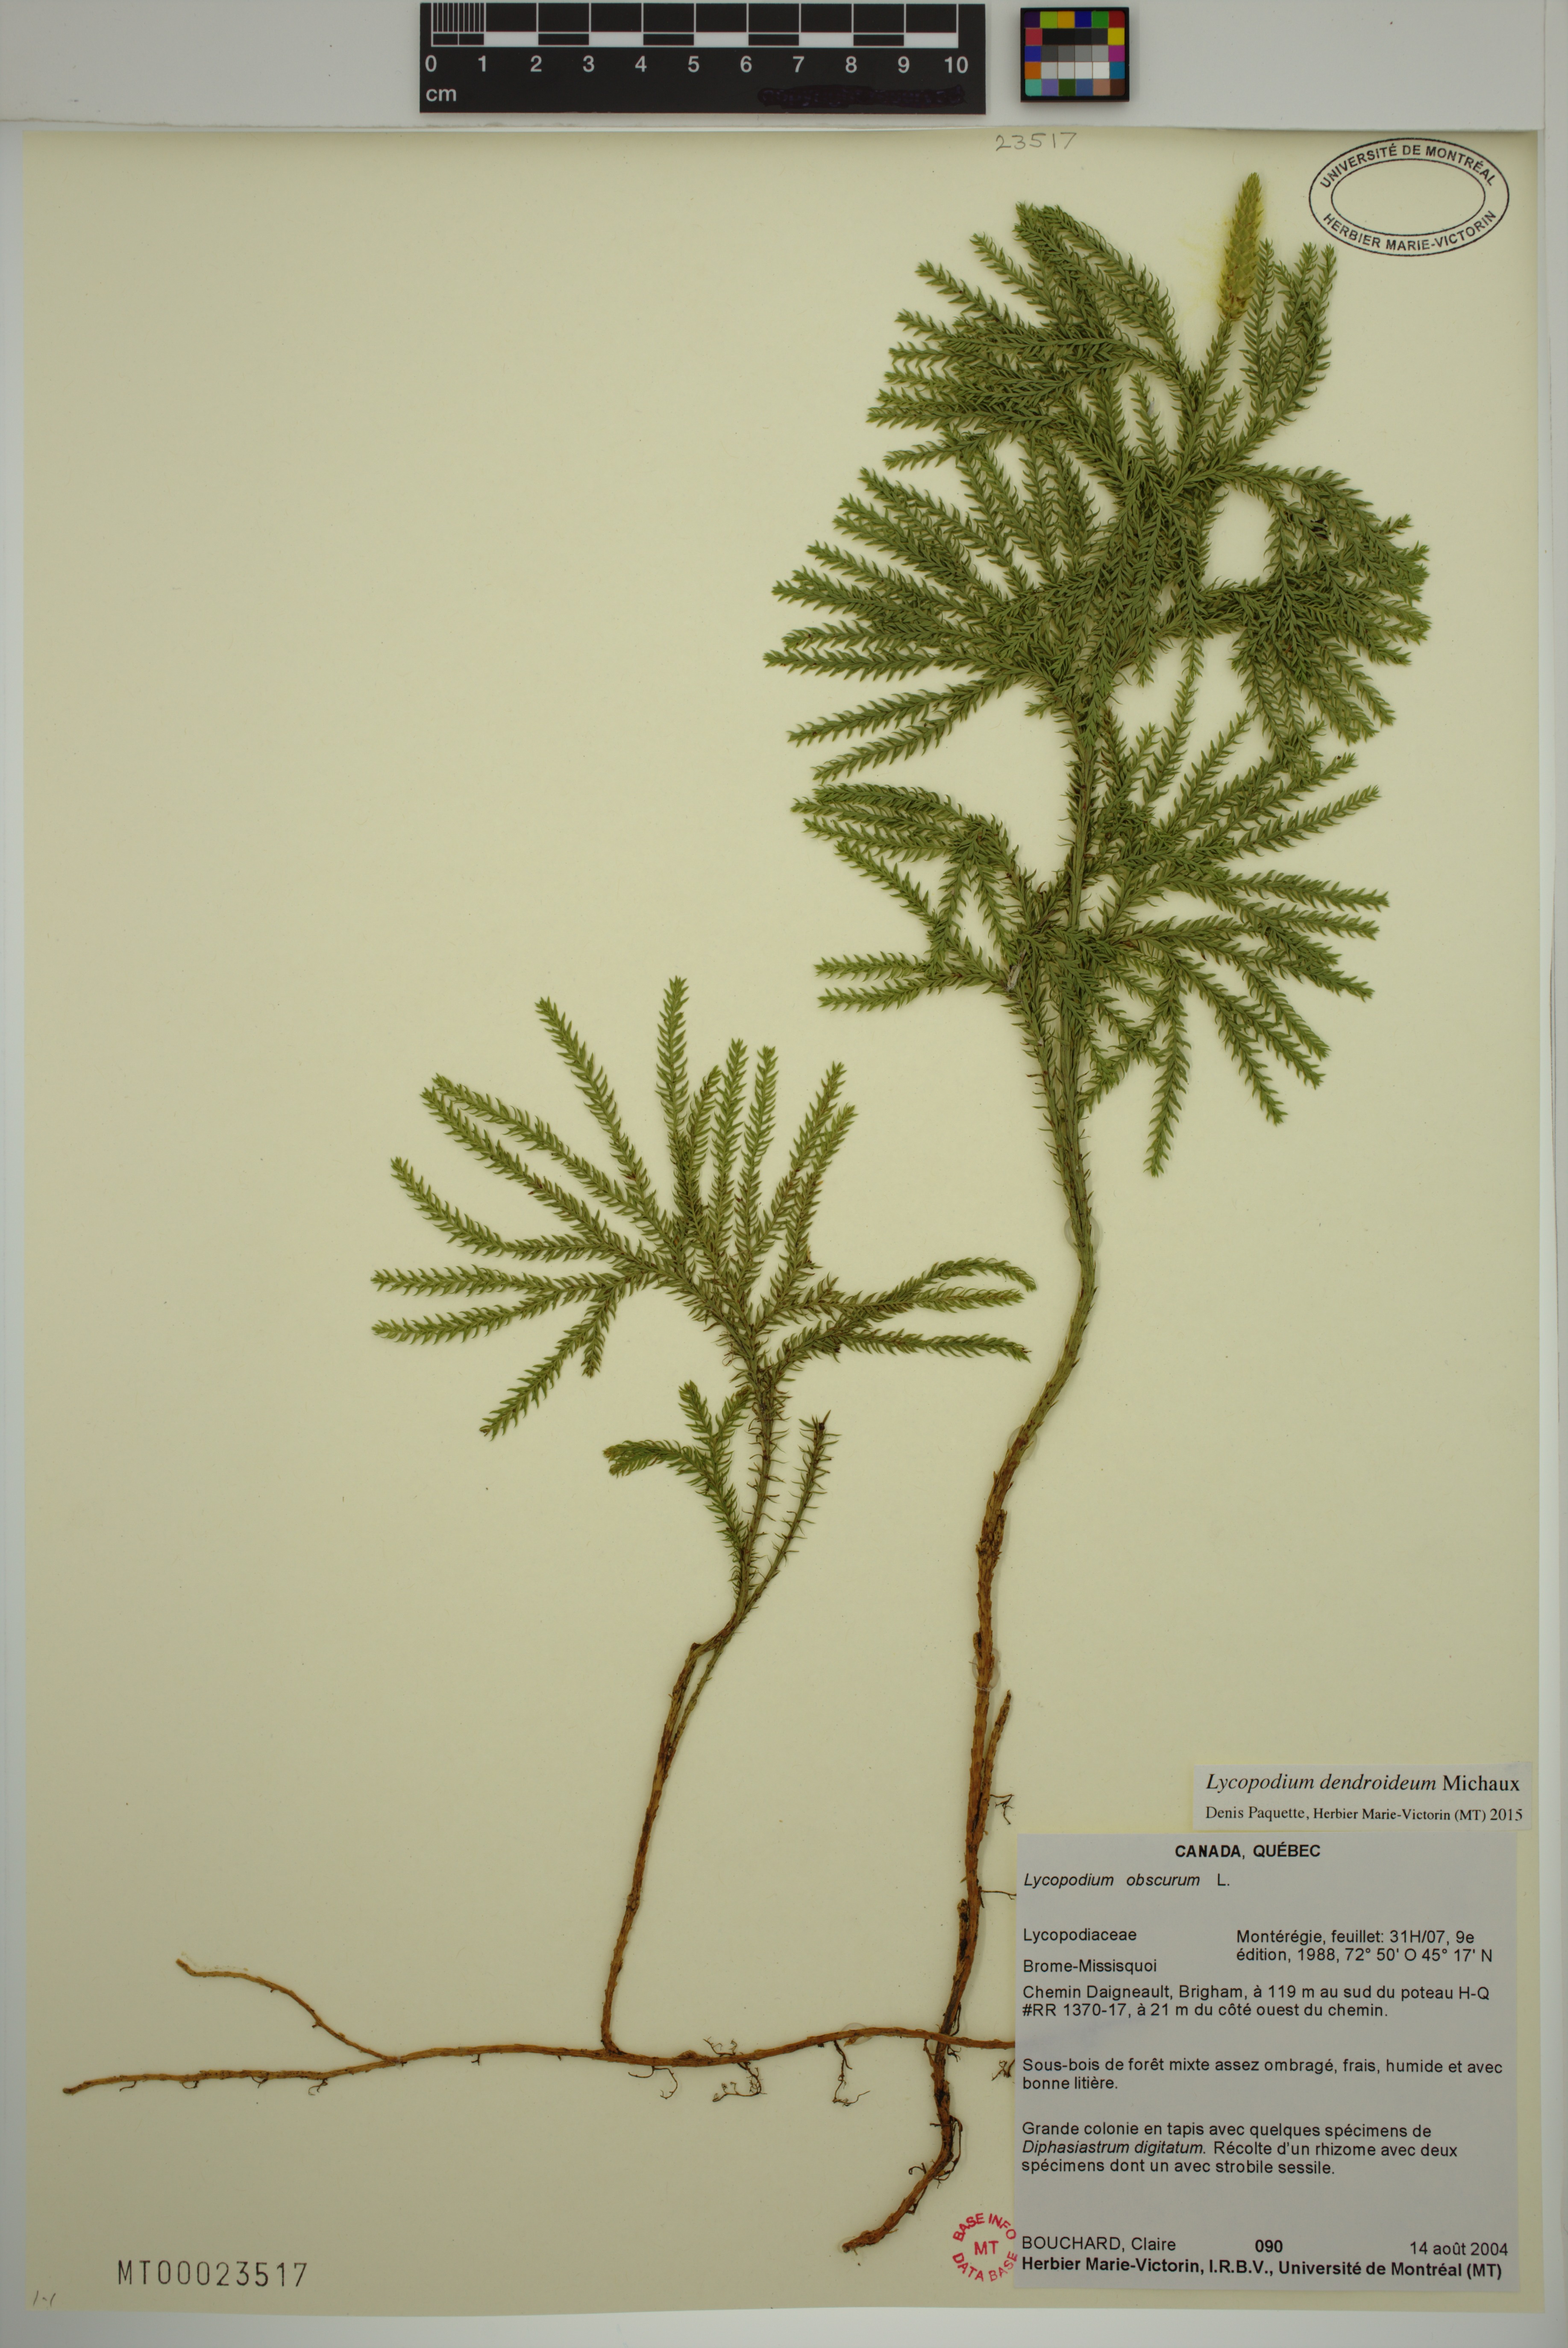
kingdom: Plantae
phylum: Tracheophyta
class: Lycopodiopsida
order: Lycopodiales
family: Lycopodiaceae
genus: Dendrolycopodium
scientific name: Dendrolycopodium dendroideum
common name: Northern tree-clubmoss
